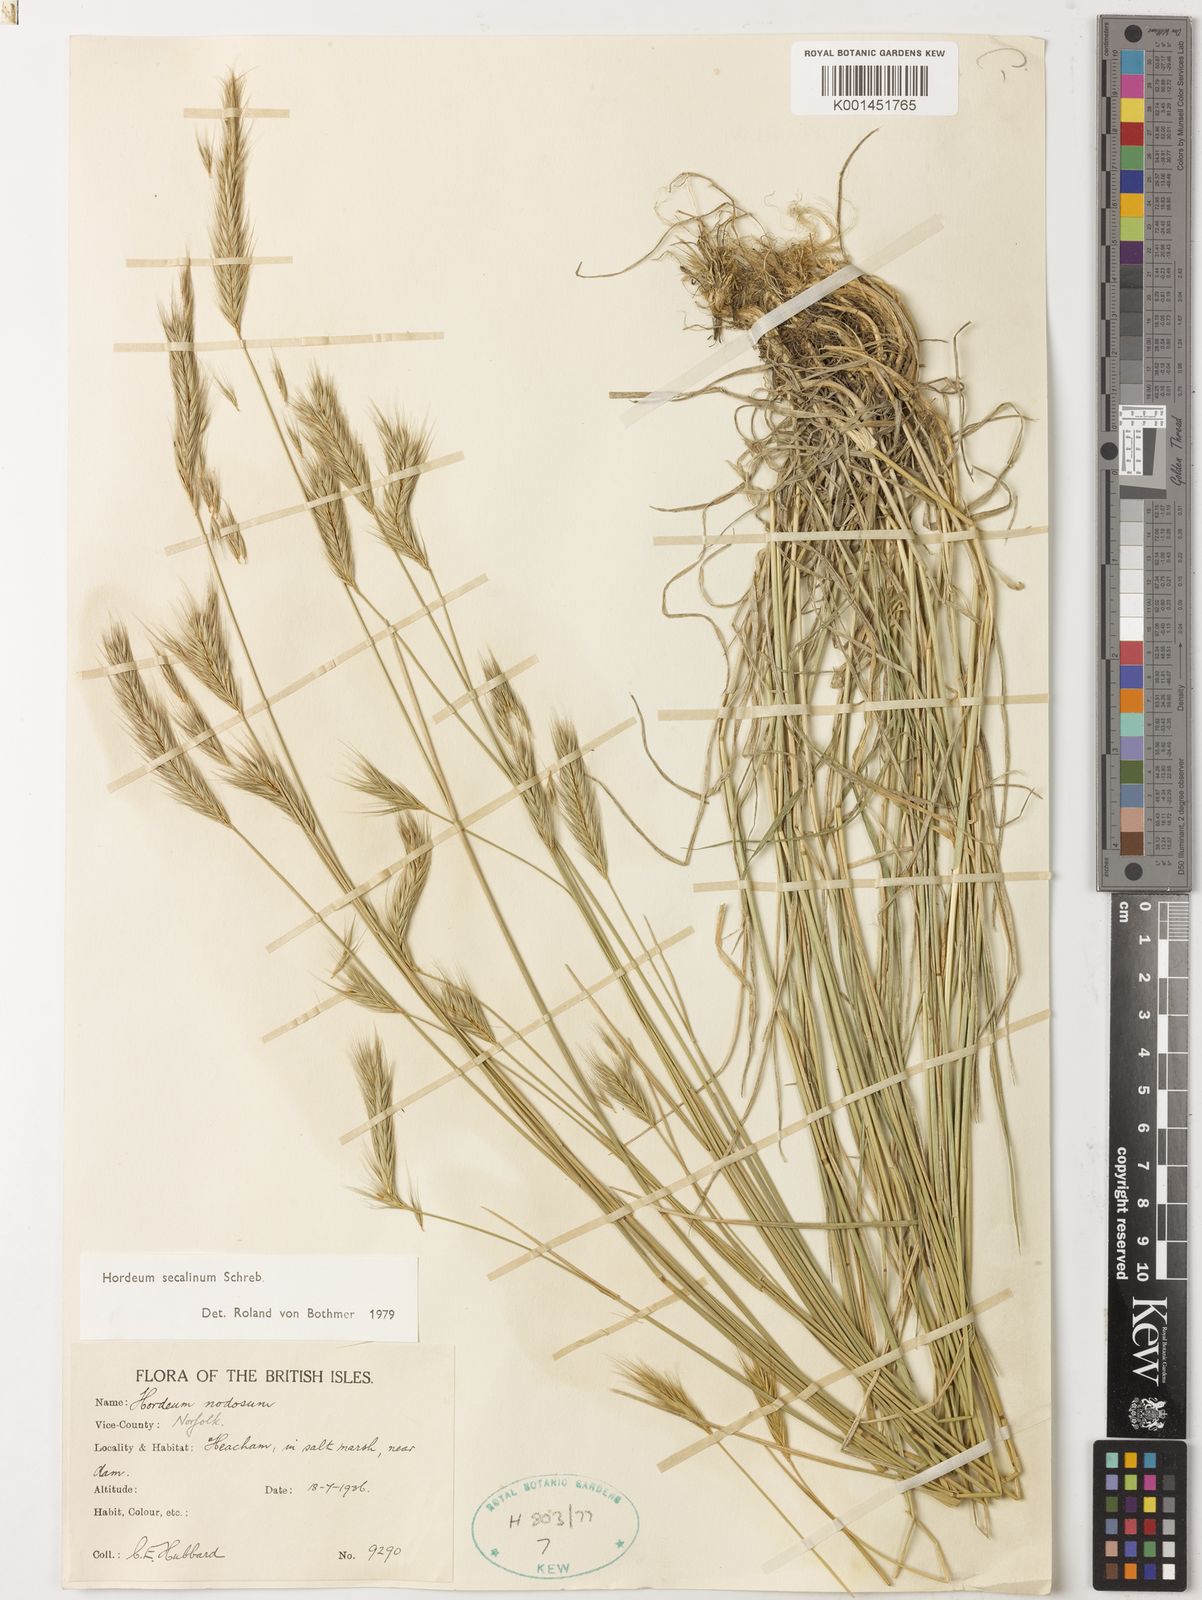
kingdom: Plantae
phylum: Tracheophyta
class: Liliopsida
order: Poales
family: Poaceae
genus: Hordeum
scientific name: Hordeum secalinum
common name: Meadow barley
